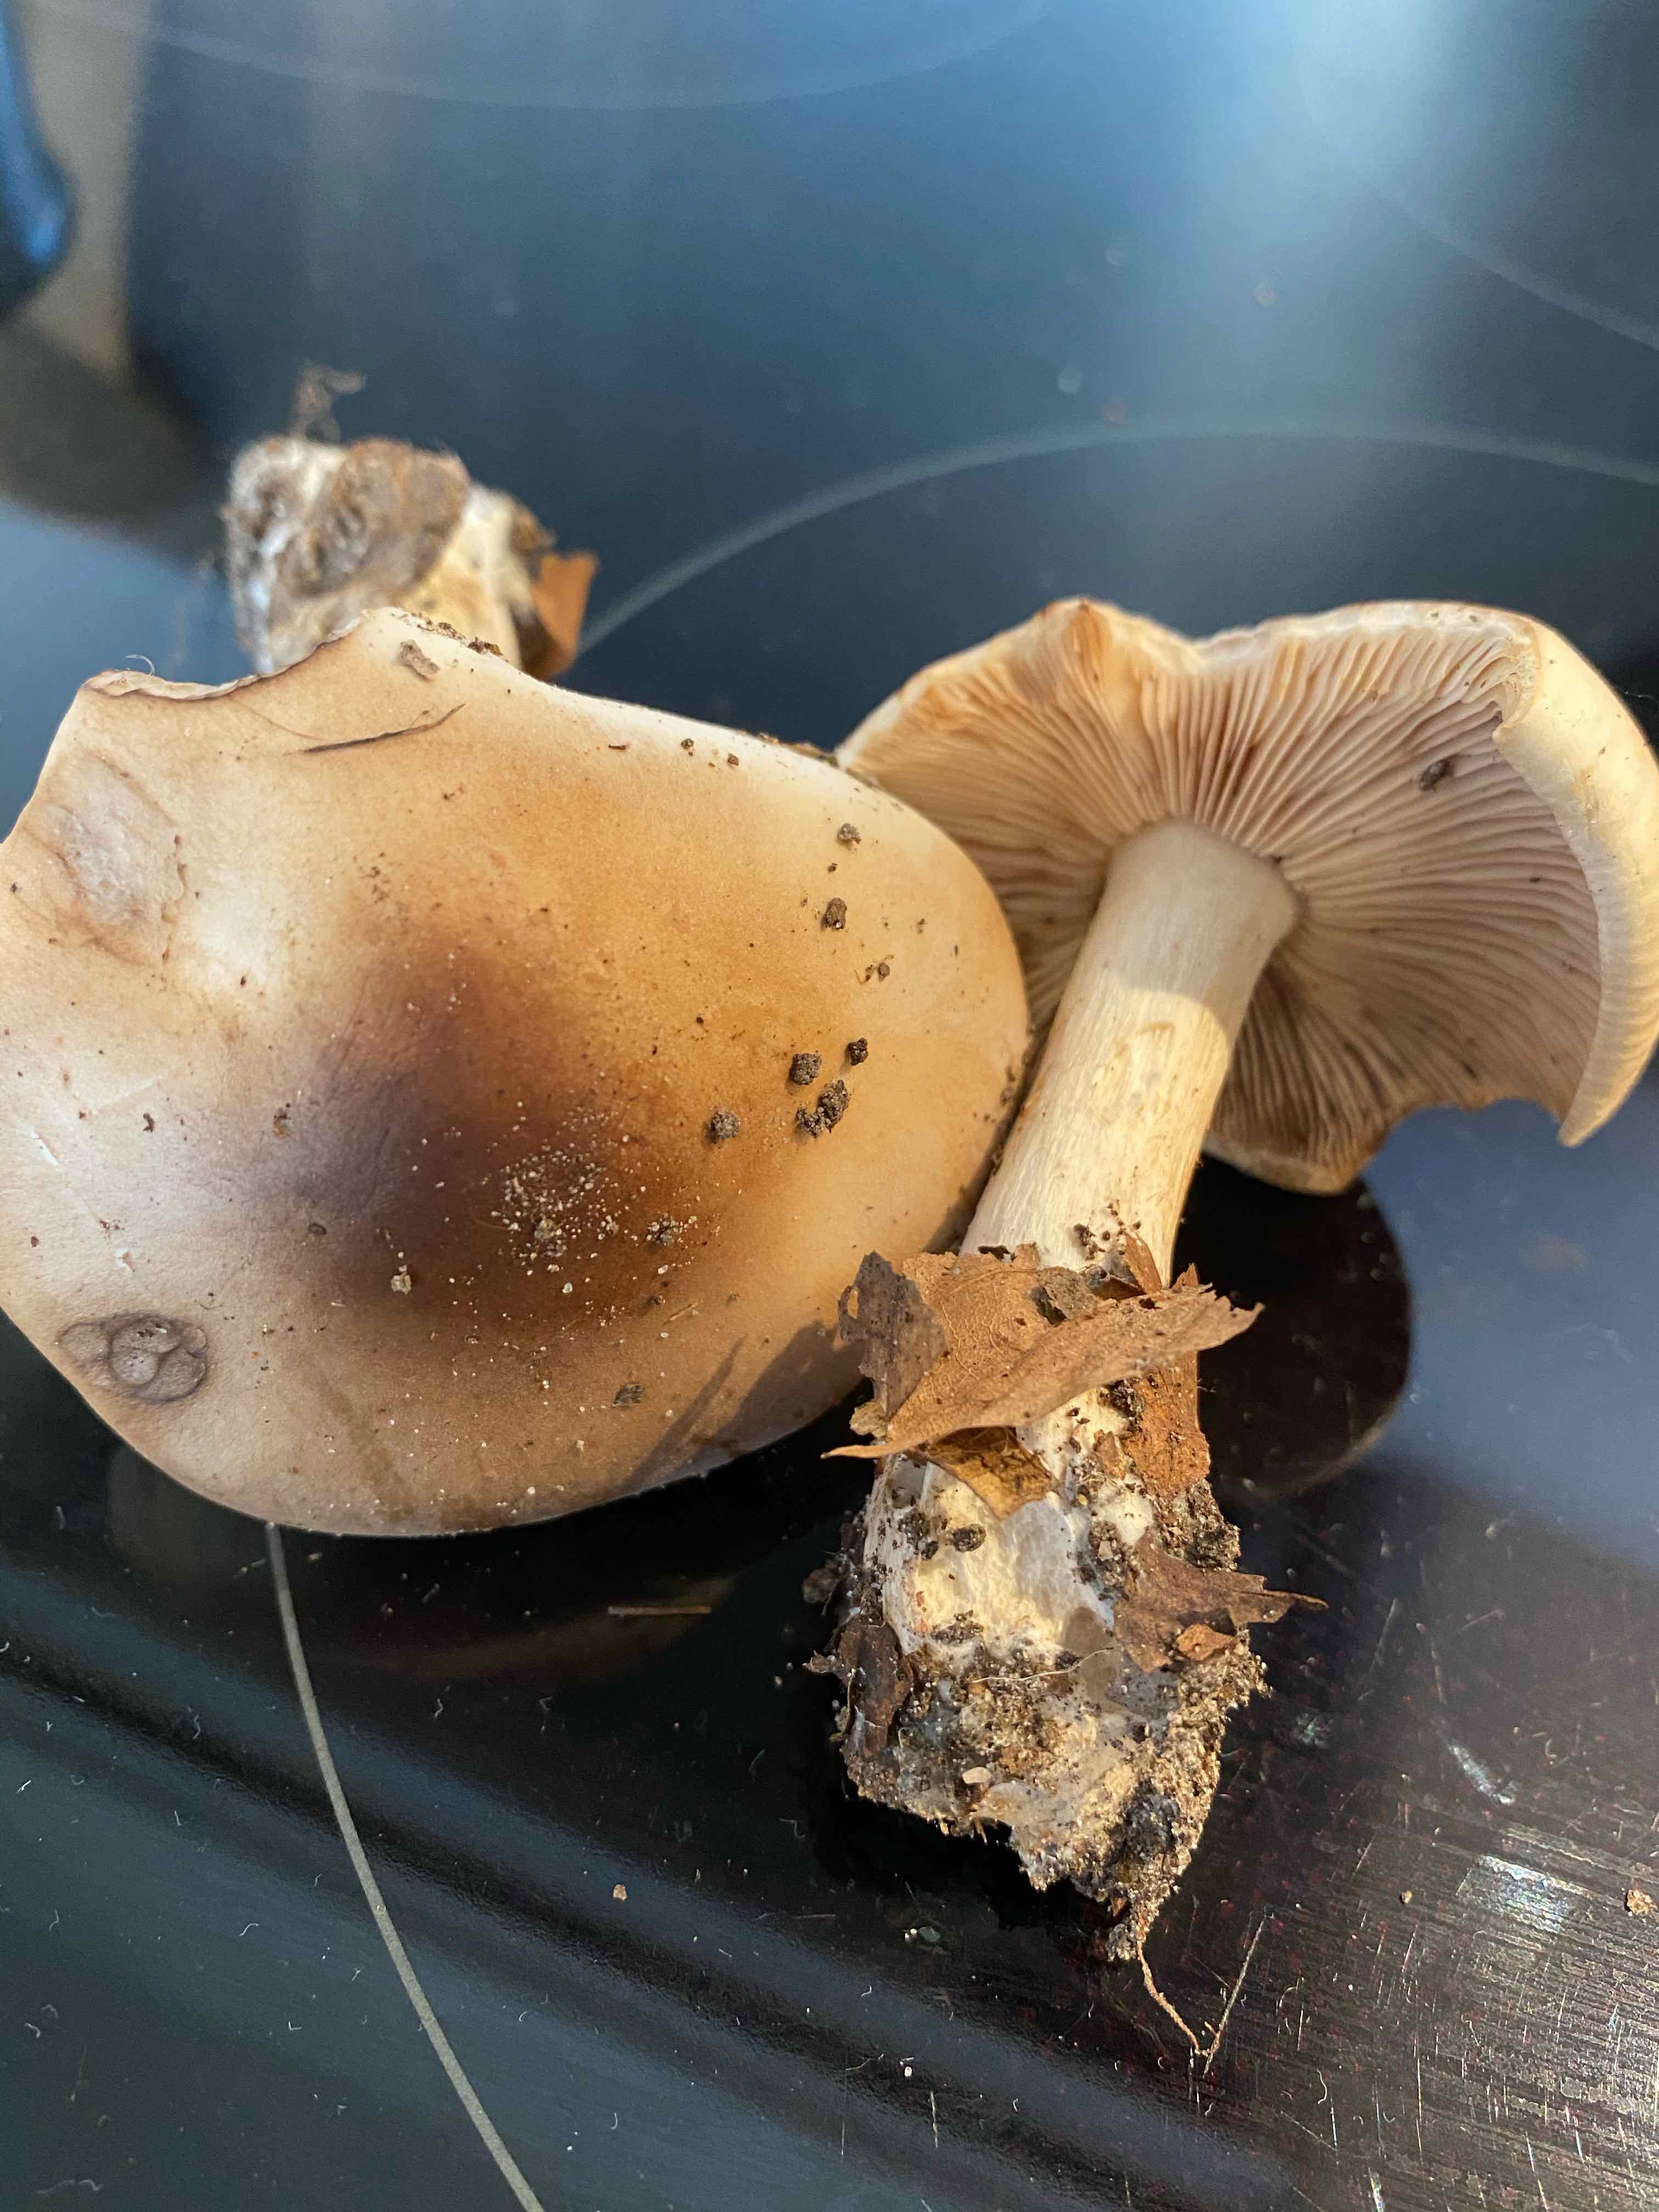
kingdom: Fungi
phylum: Basidiomycota
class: Agaricomycetes
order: Agaricales
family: Tricholomataceae
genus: Lepista
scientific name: Lepista irina
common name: violduftende hekseringshat
